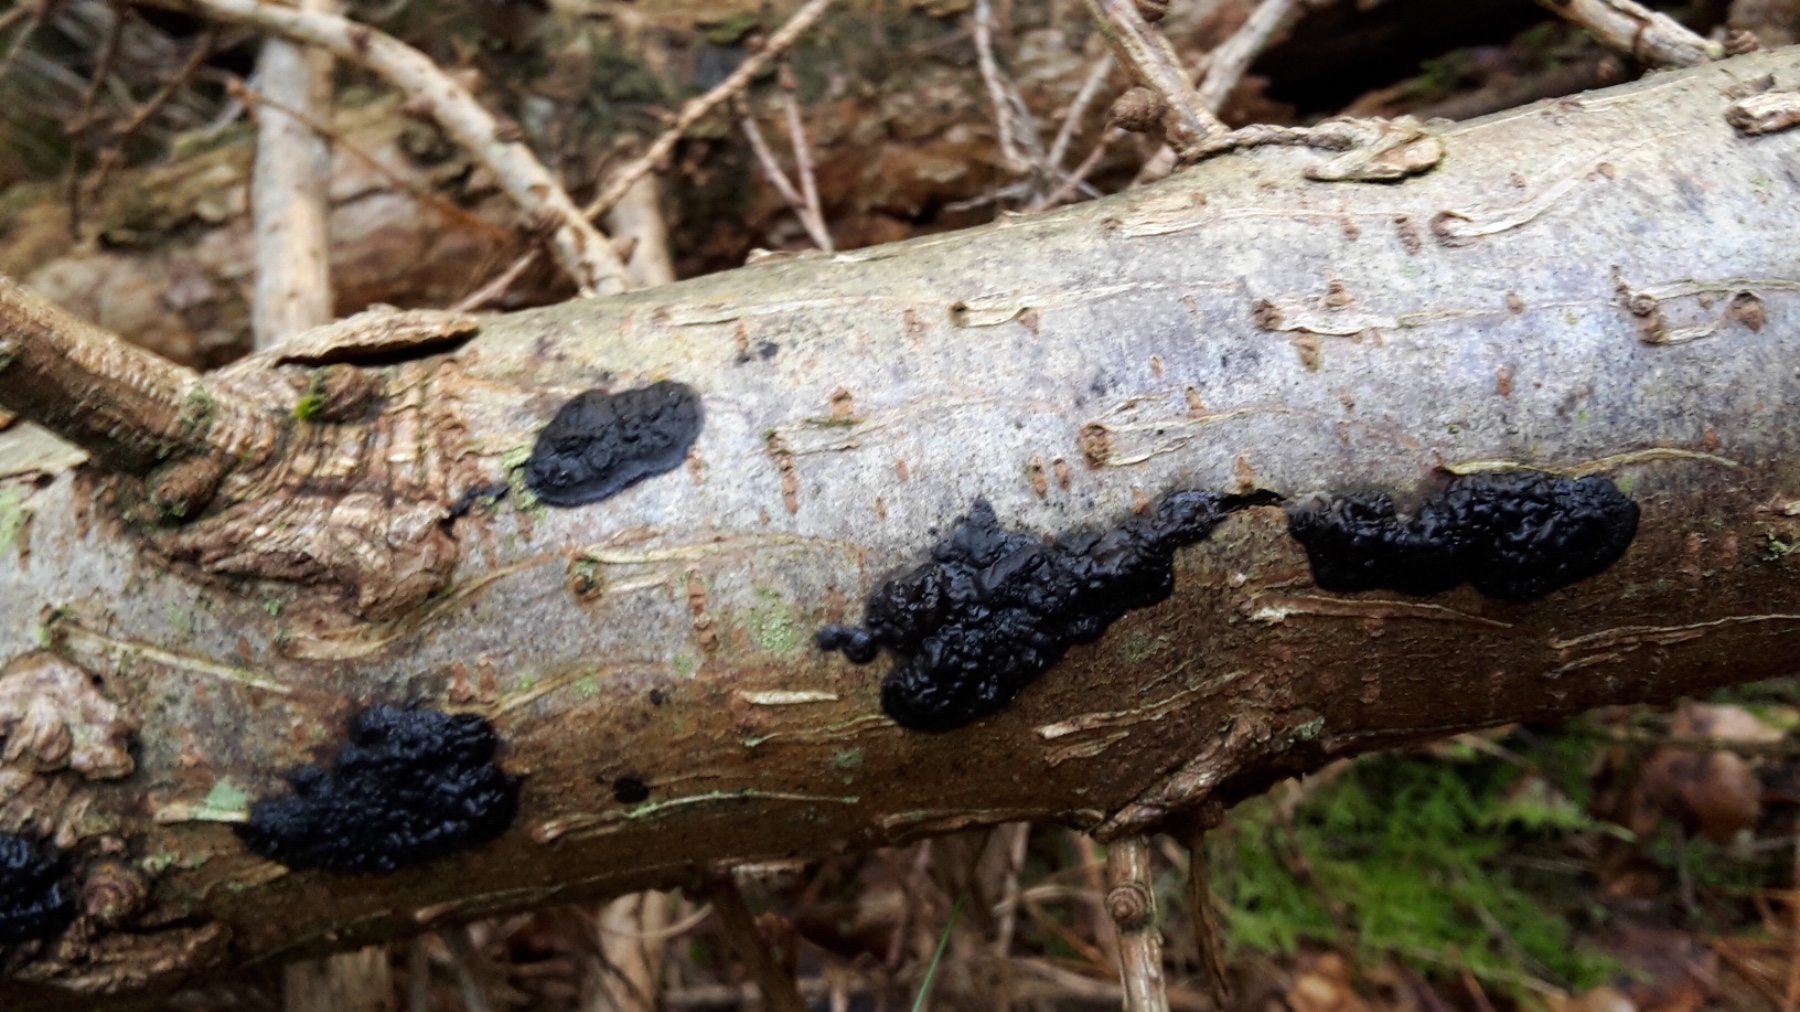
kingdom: Fungi
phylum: Basidiomycota
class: Agaricomycetes
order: Auriculariales
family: Auriculariaceae
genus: Exidia
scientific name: Exidia pithya
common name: gran-bævretop
